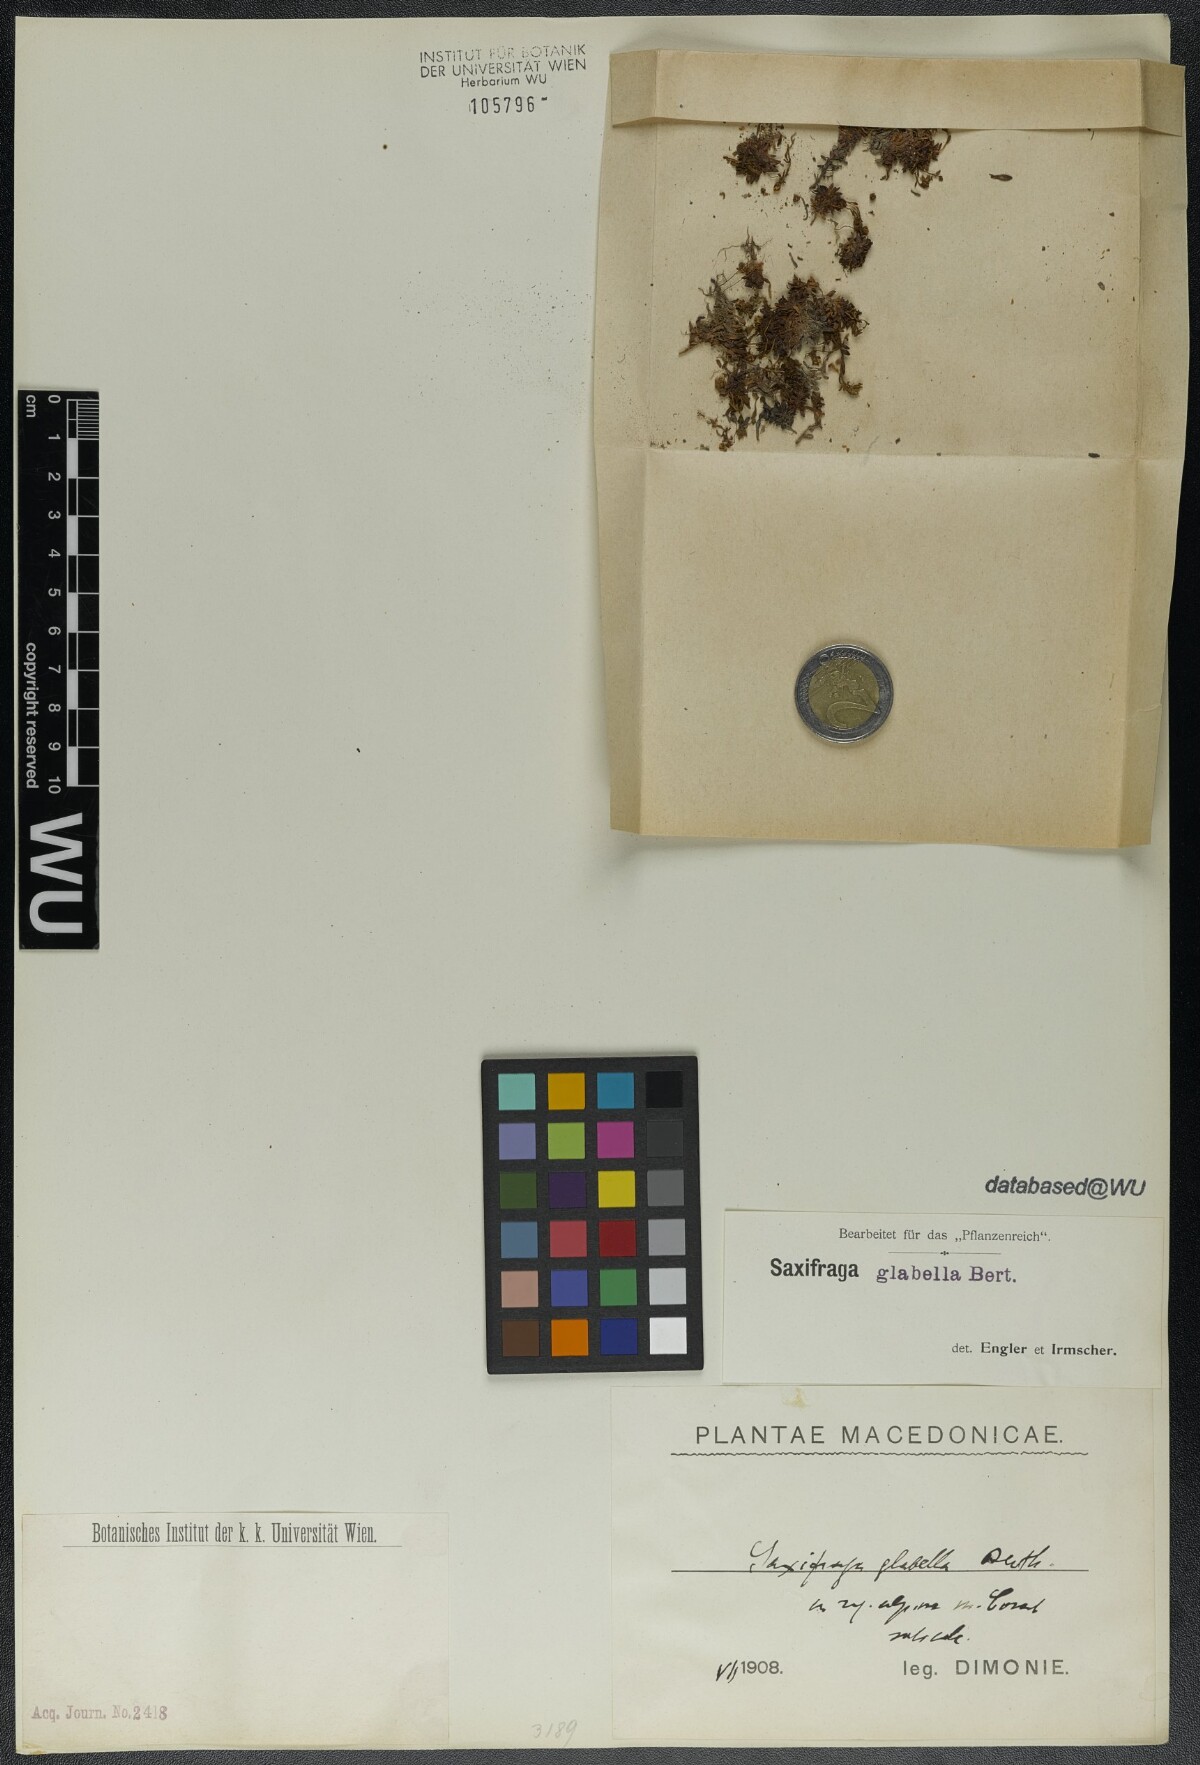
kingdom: Plantae
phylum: Tracheophyta
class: Magnoliopsida
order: Saxifragales
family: Saxifragaceae
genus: Saxifraga
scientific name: Saxifraga glabella
